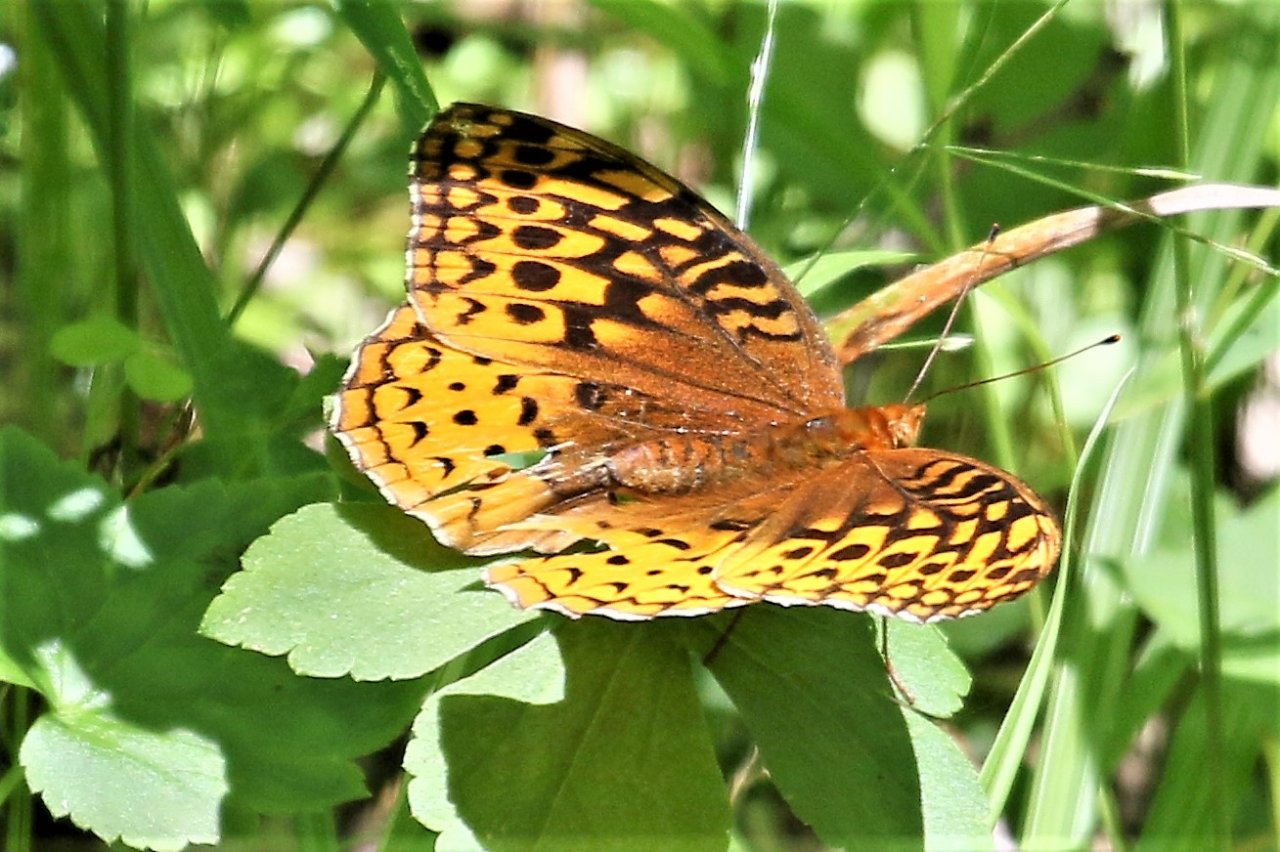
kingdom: Animalia
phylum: Arthropoda
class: Insecta
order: Lepidoptera
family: Nymphalidae
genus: Speyeria
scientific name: Speyeria cybele
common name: Great Spangled Fritillary
